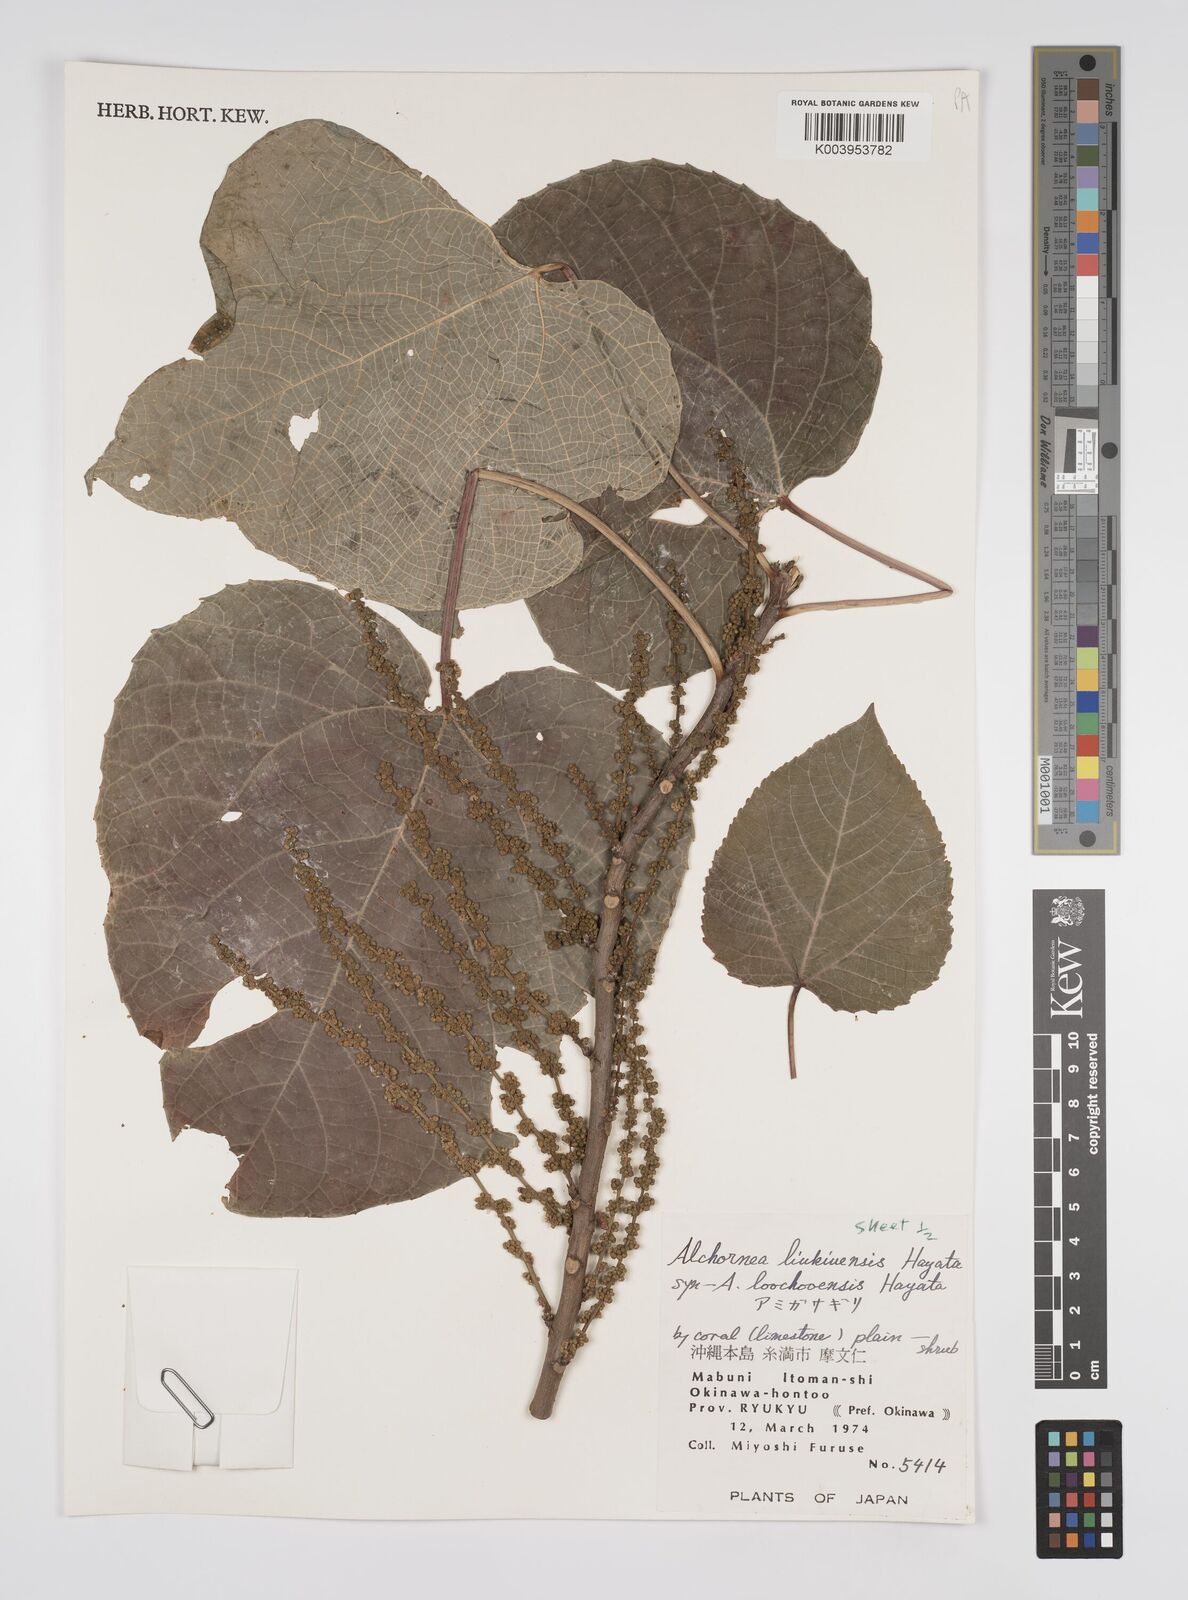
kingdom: Plantae
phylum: Tracheophyta
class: Magnoliopsida
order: Malpighiales
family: Euphorbiaceae
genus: Alchornea
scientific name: Alchornea liukiuensis
